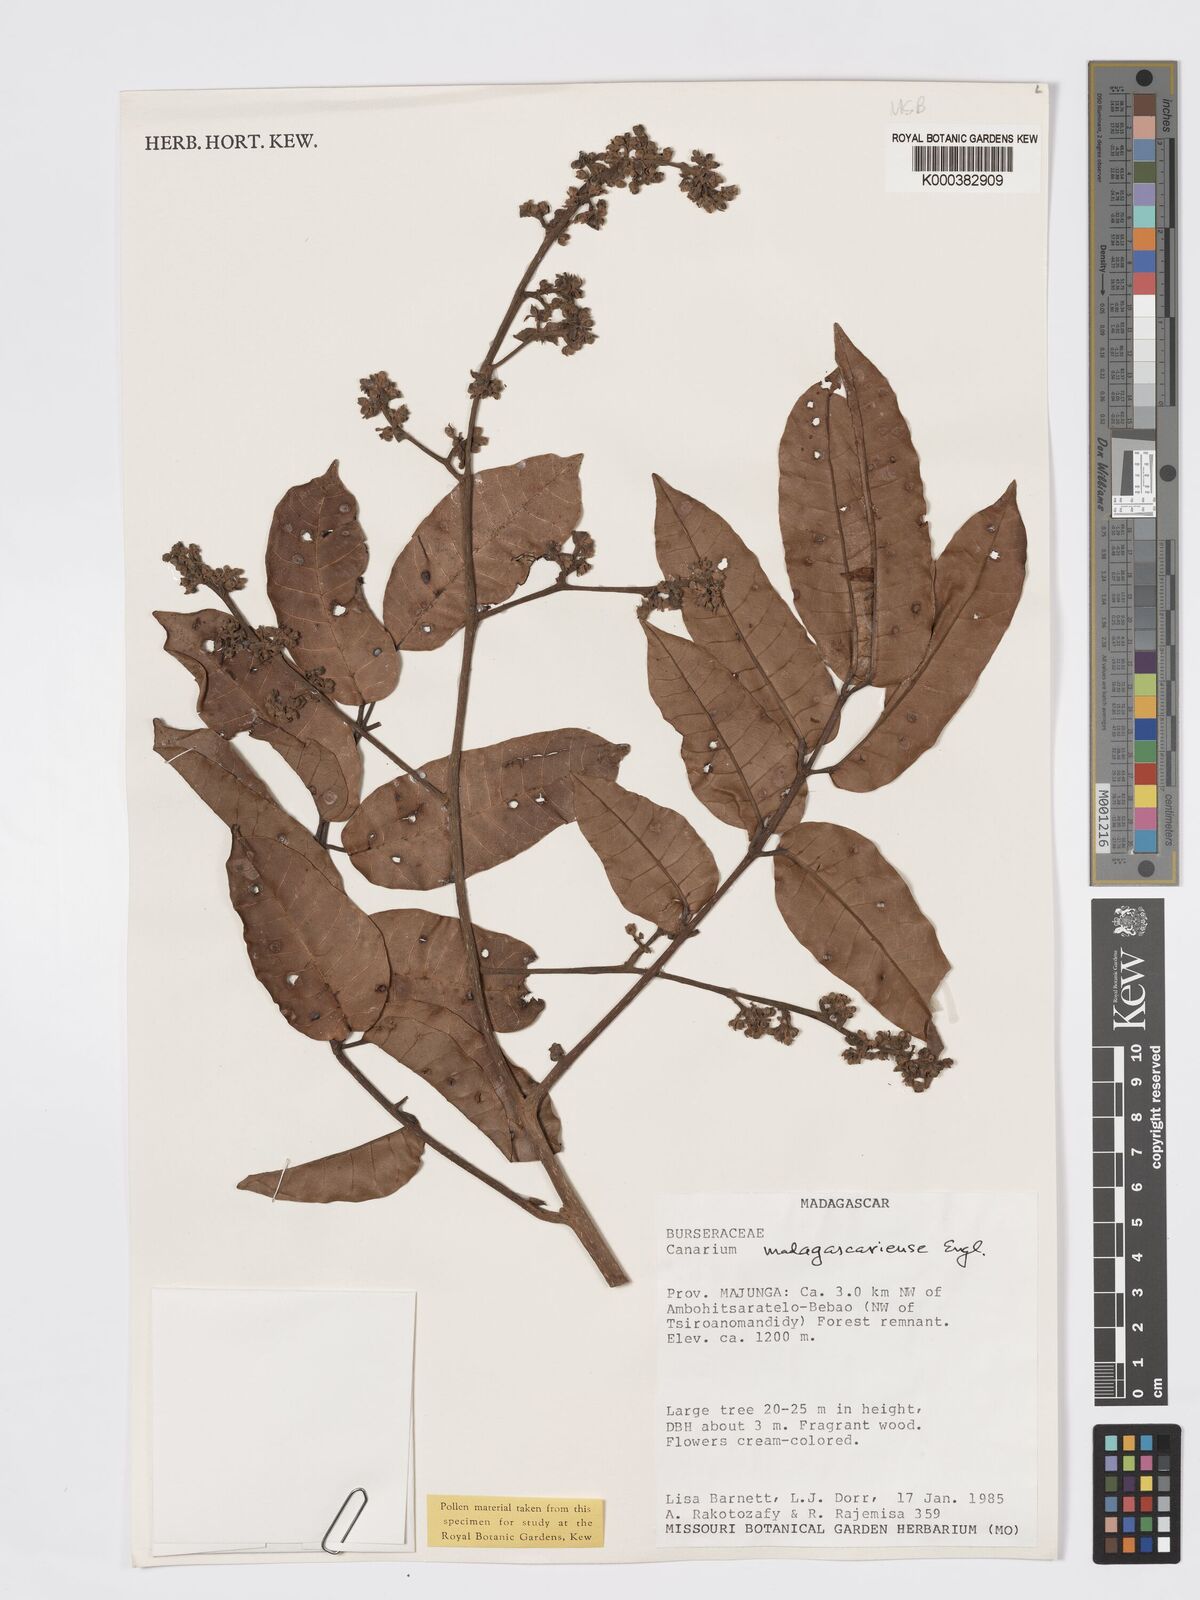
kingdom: Plantae
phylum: Tracheophyta
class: Magnoliopsida
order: Sapindales
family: Burseraceae
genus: Canarium
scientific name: Canarium madagascariense
